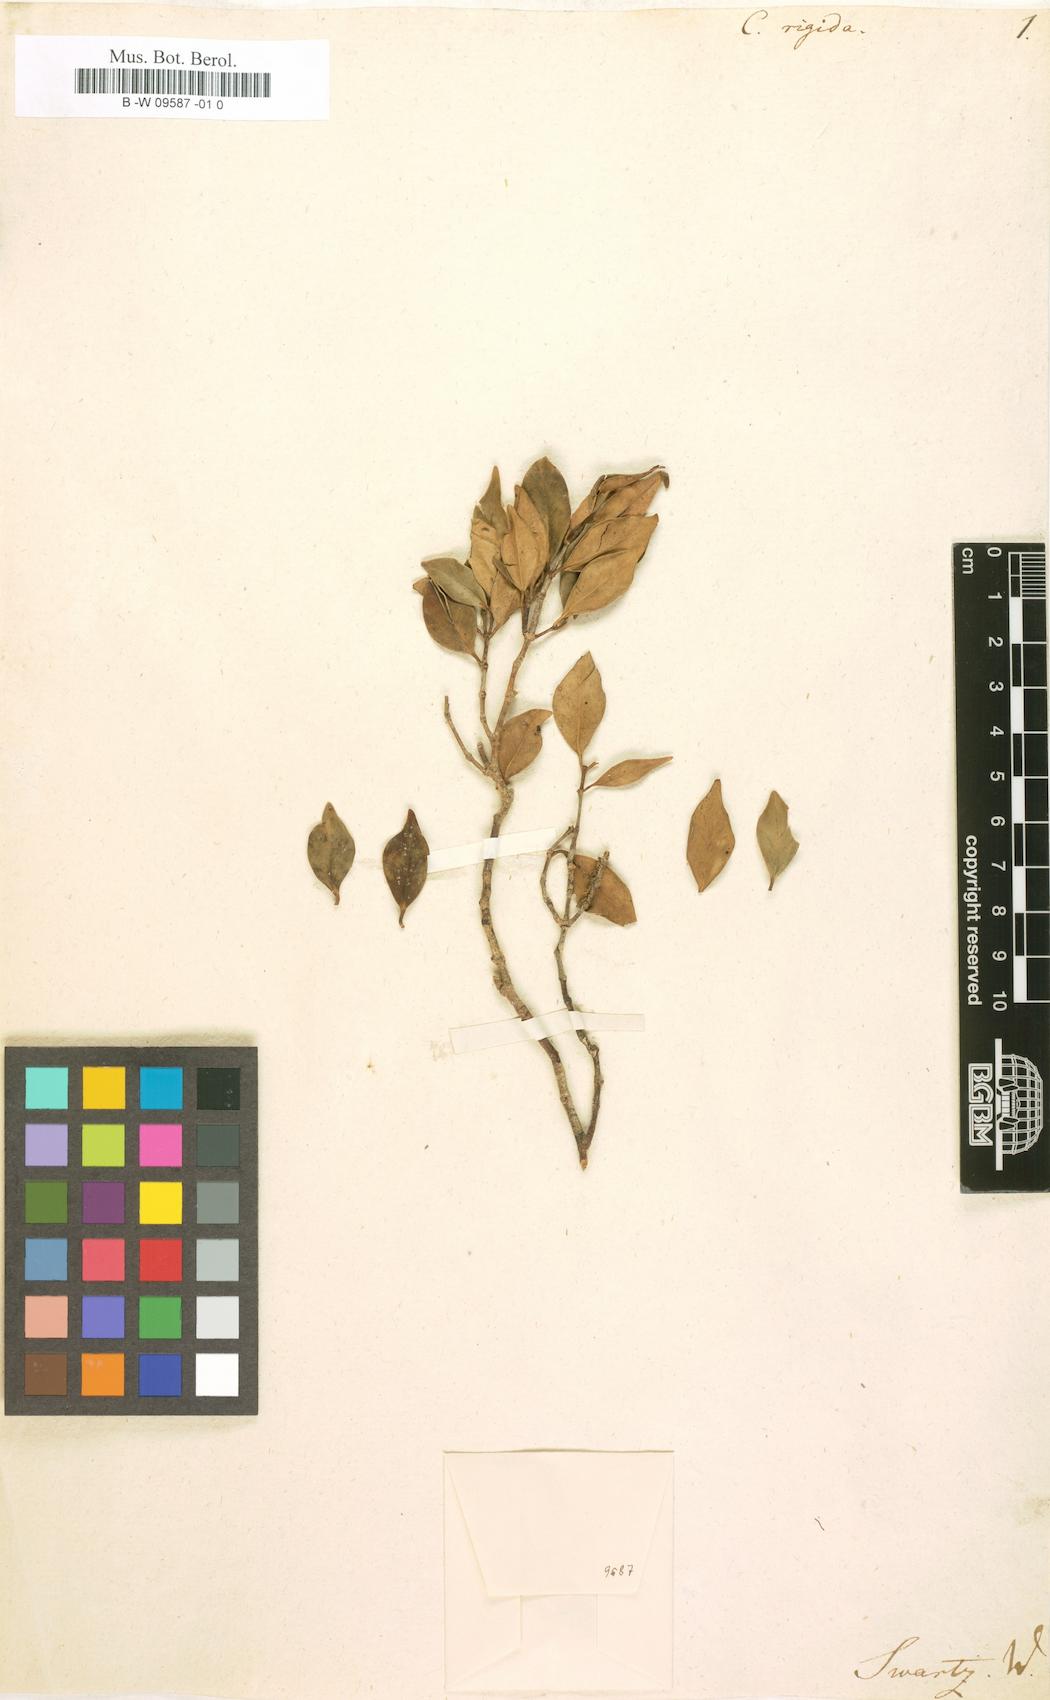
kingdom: Plantae
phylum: Tracheophyta
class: Magnoliopsida
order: Myrtales
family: Myrtaceae
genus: Myrcia
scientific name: Myrcia
